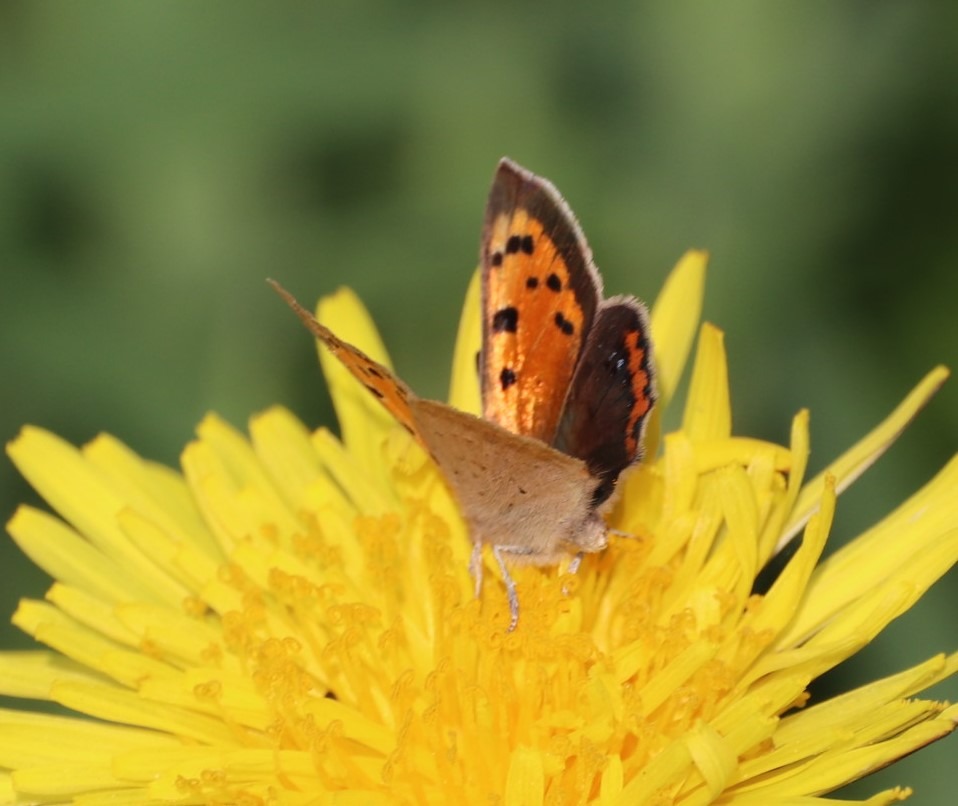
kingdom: Animalia
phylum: Arthropoda
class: Insecta
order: Lepidoptera
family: Lycaenidae
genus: Lycaena
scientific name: Lycaena phlaeas
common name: Lille ildfugl
